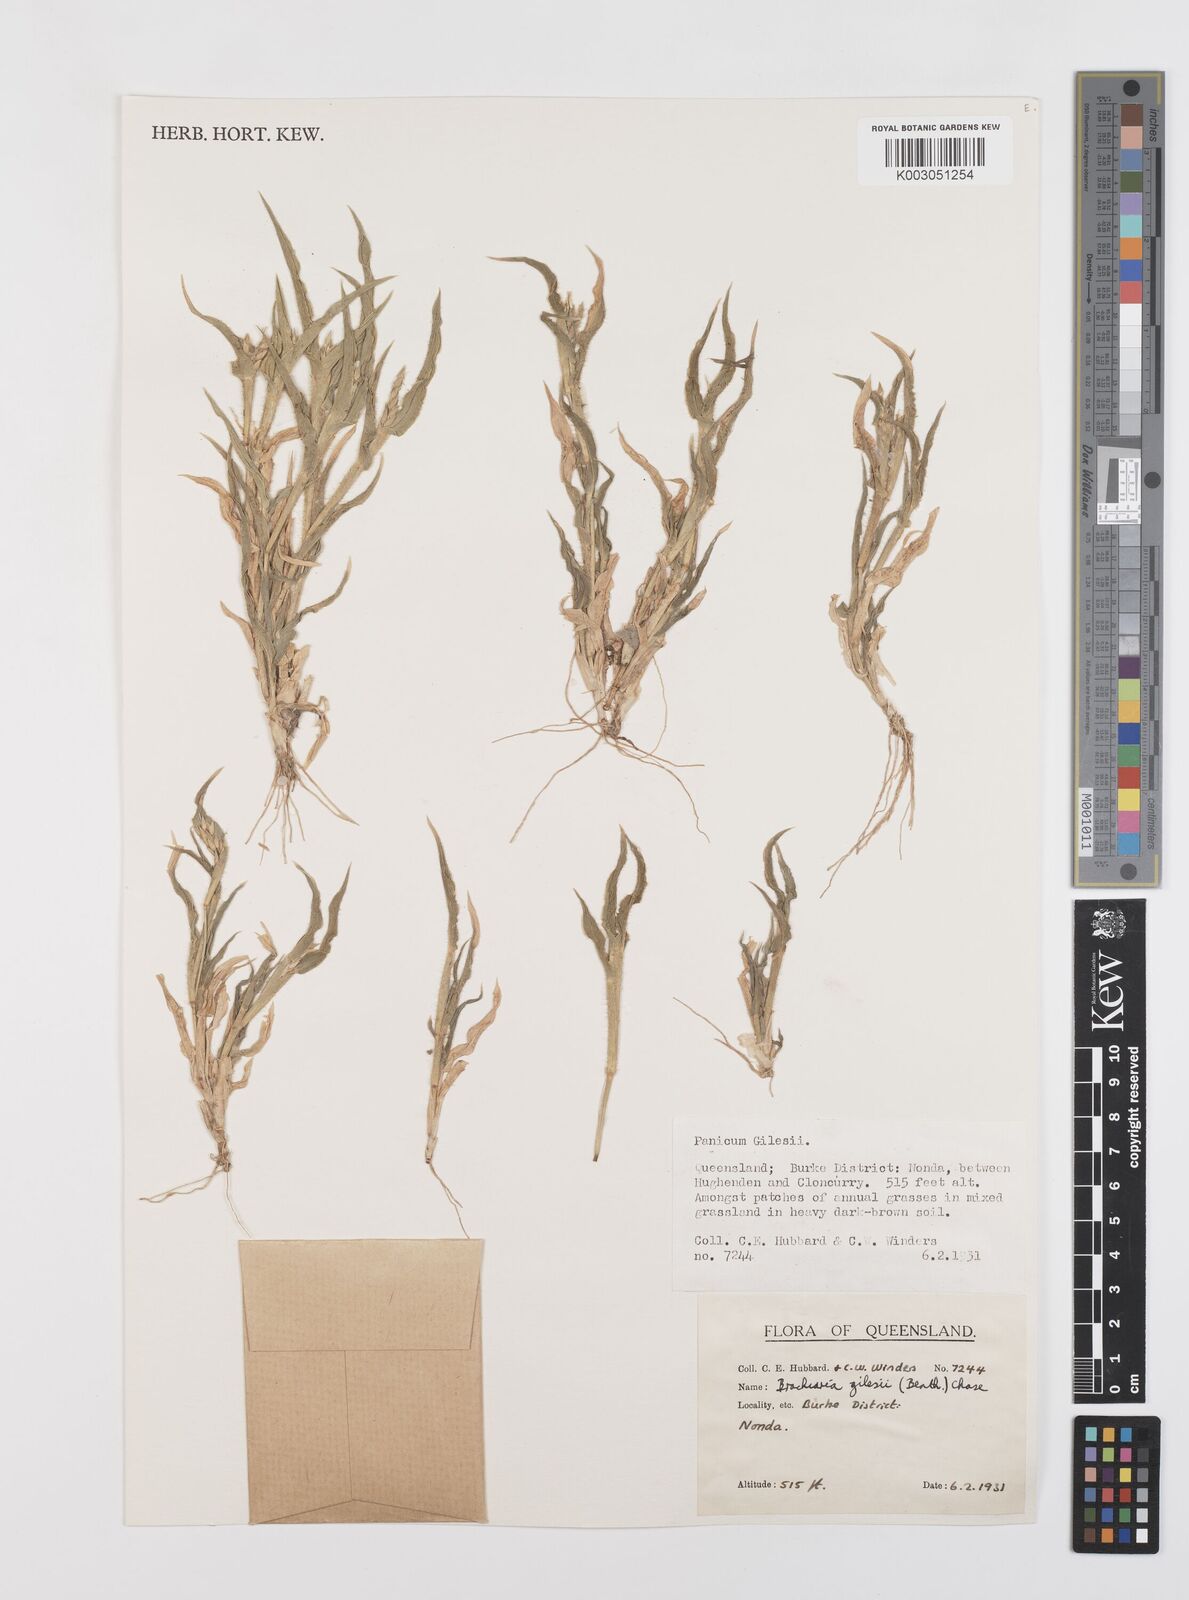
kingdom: Plantae
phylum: Tracheophyta
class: Liliopsida
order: Poales
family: Poaceae
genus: Urochloa
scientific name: Urochloa gilesii
